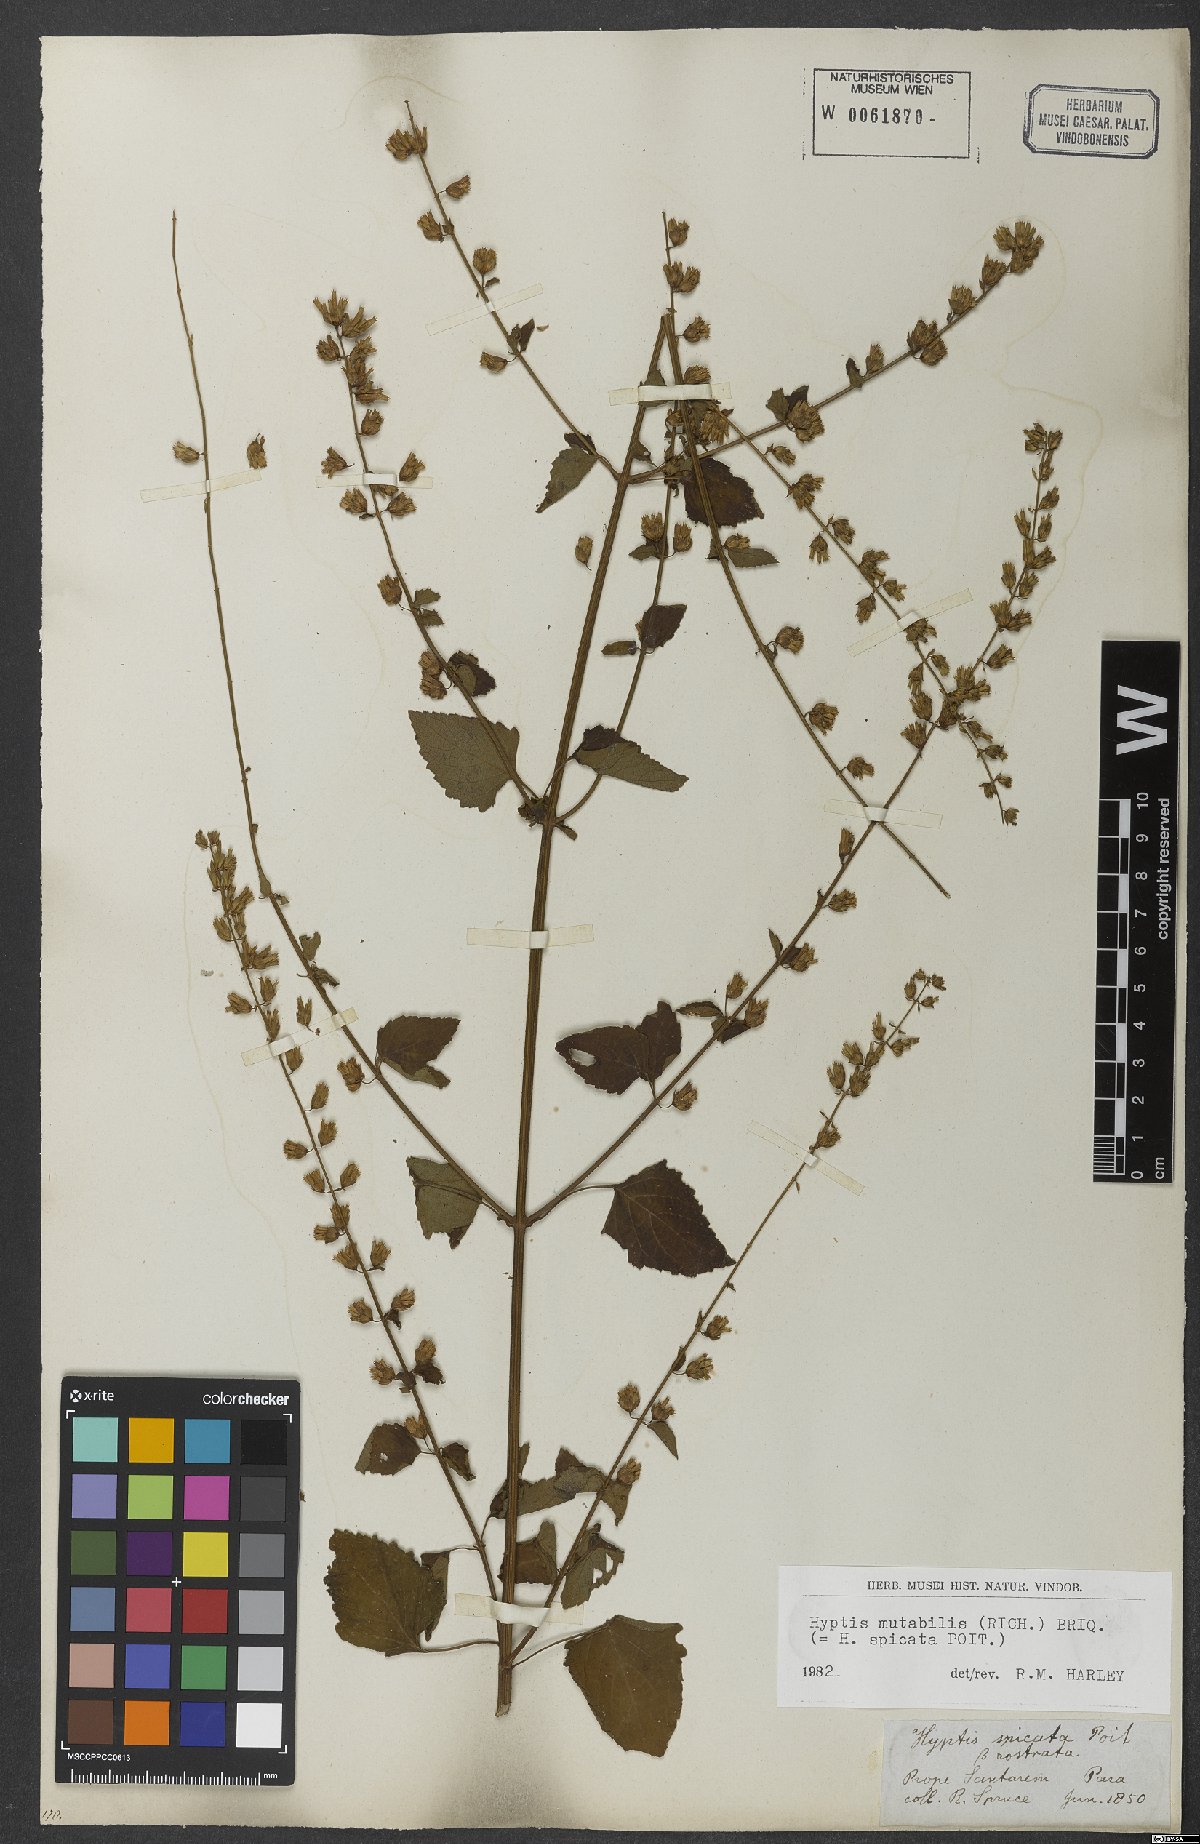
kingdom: Plantae
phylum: Tracheophyta
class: Magnoliopsida
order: Lamiales
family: Lamiaceae
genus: Cantinoa
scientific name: Cantinoa mutabilis
